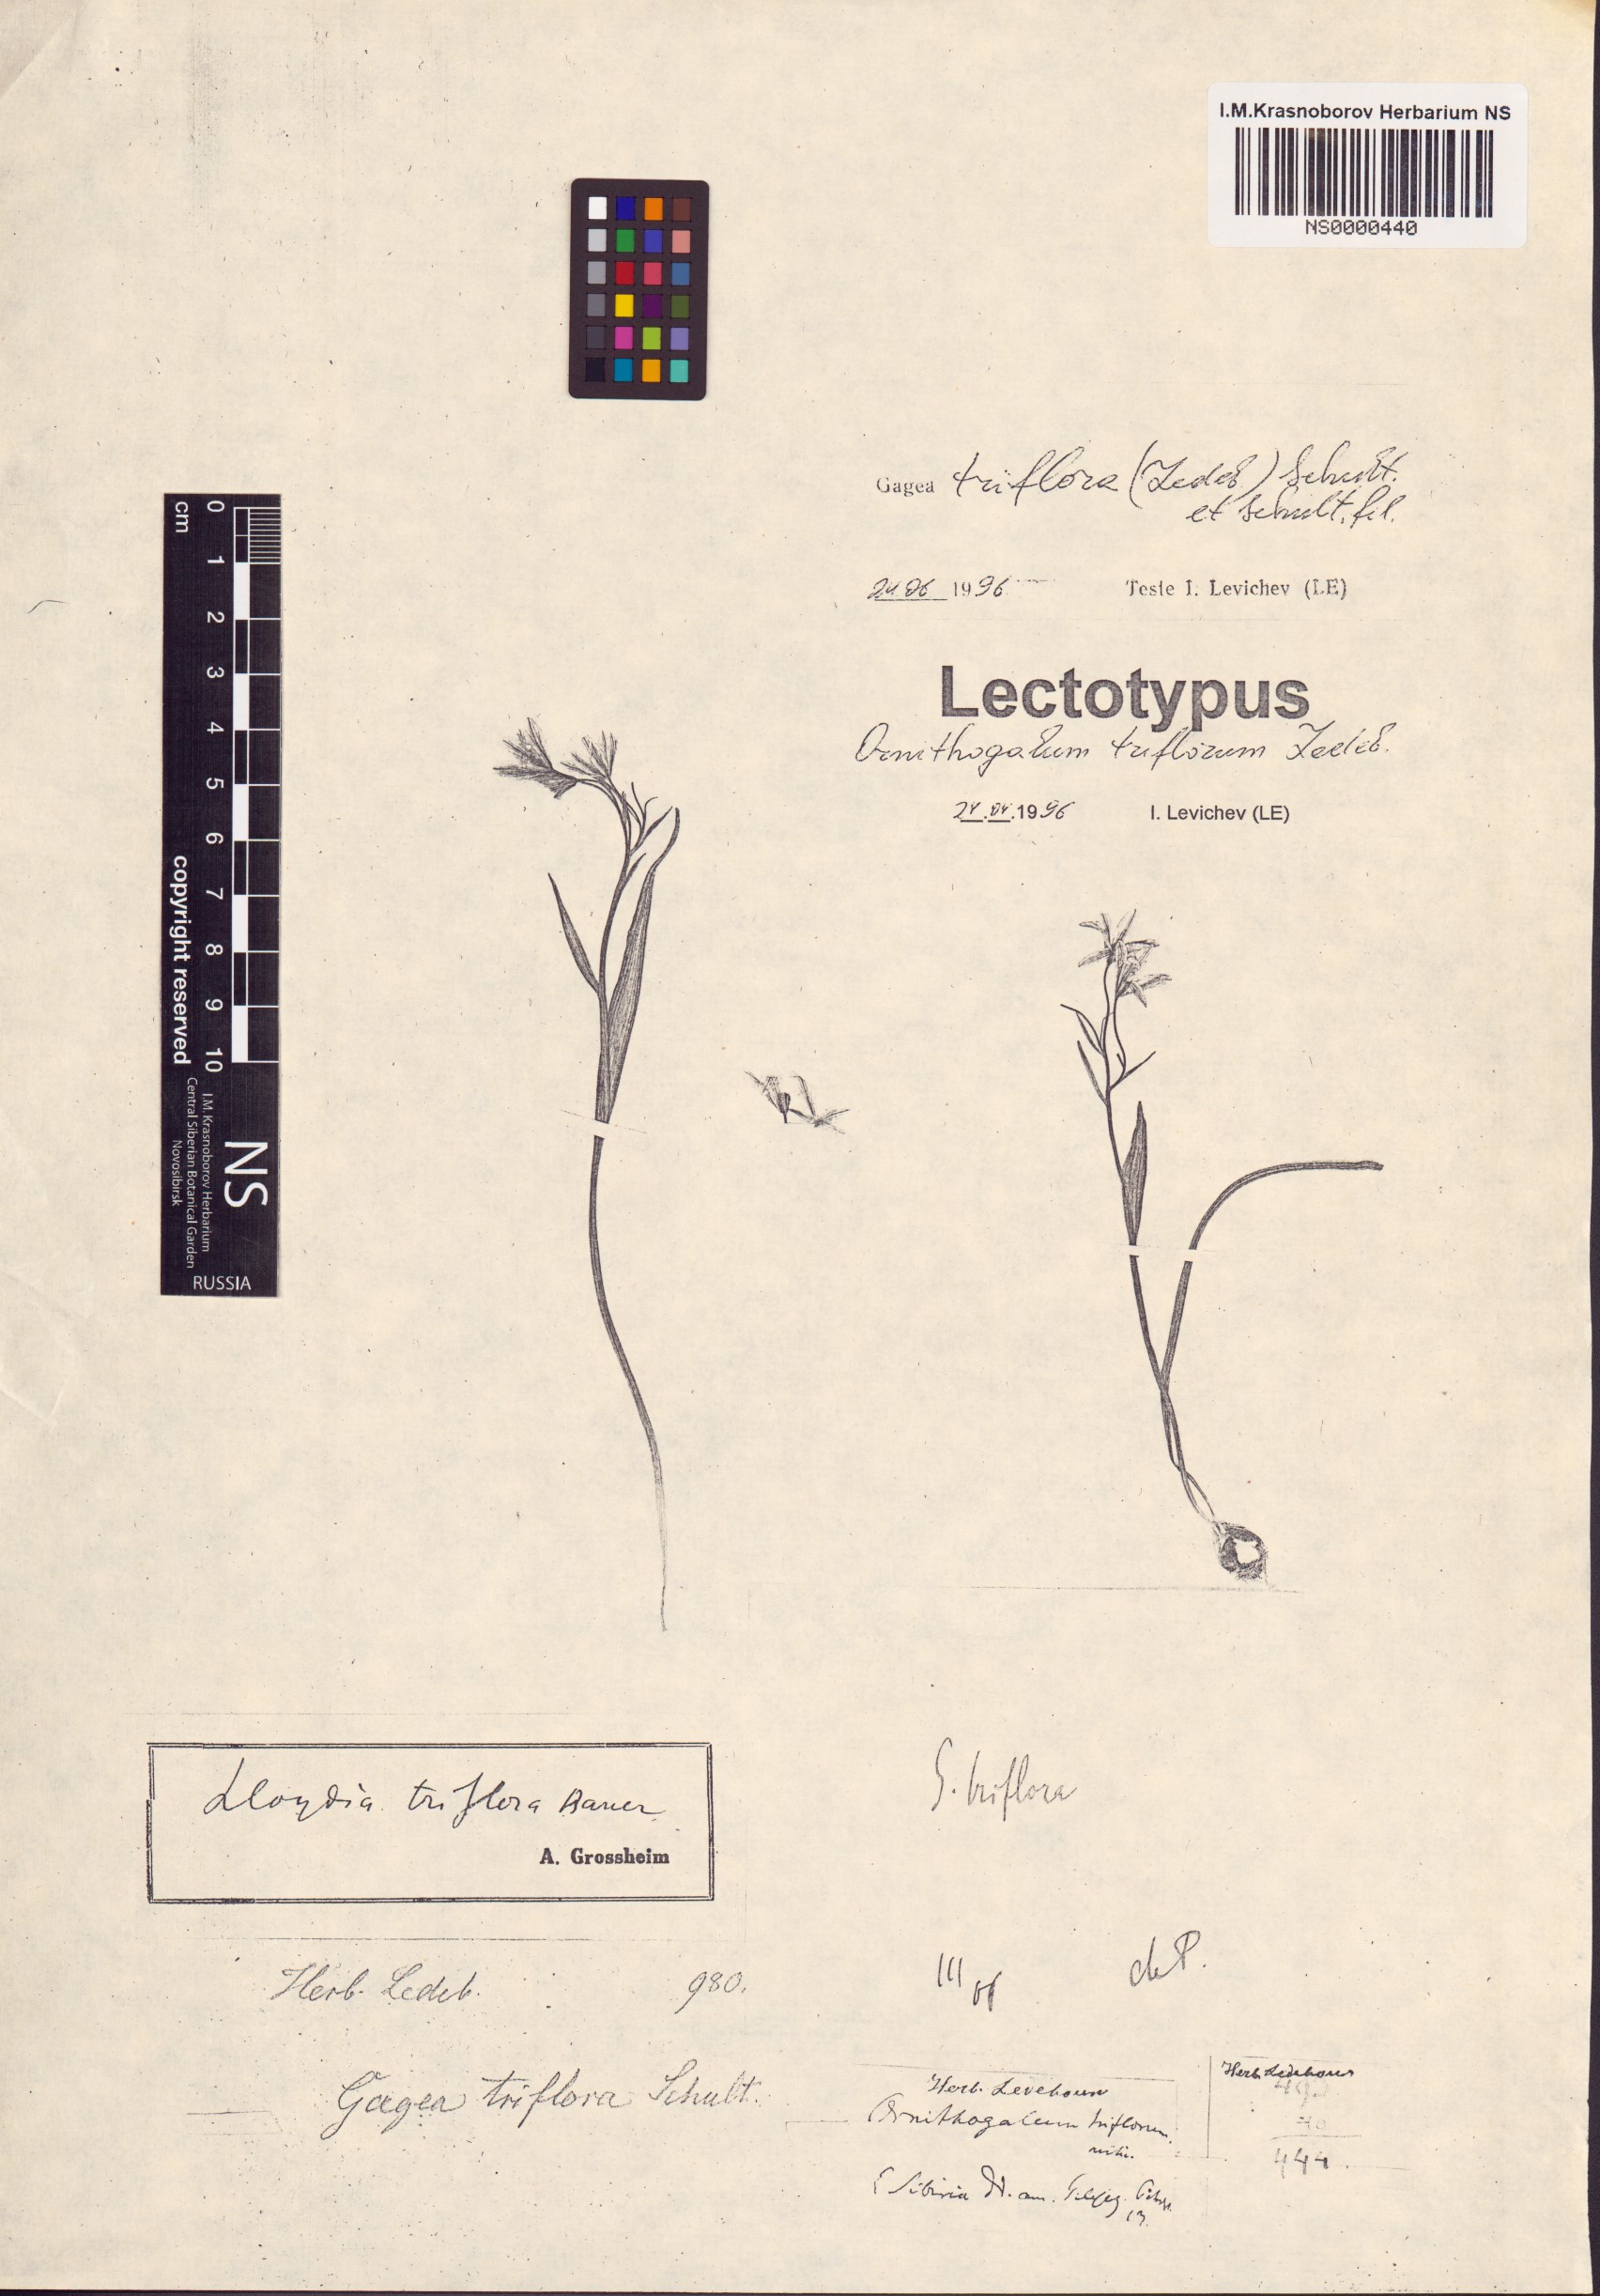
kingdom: Plantae
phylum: Tracheophyta
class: Liliopsida
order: Liliales
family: Liliaceae
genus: Gagea
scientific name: Gagea triflora
